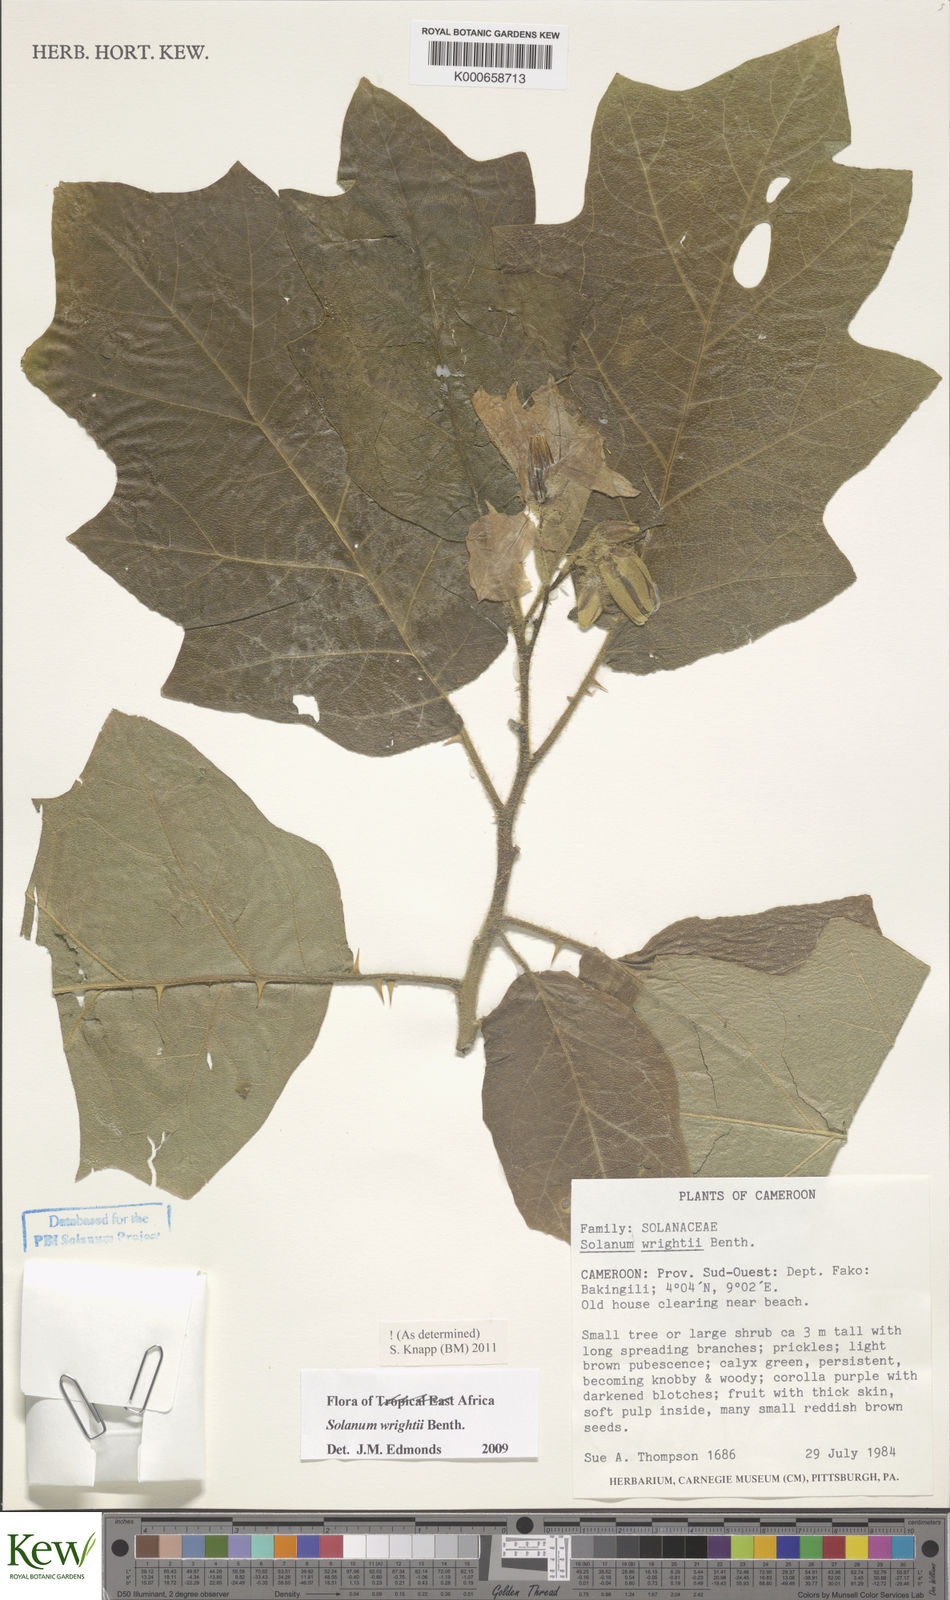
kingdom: Plantae
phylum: Tracheophyta
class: Magnoliopsida
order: Solanales
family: Solanaceae
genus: Solanum
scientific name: Solanum wrightii
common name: Brazilian potato-tree
